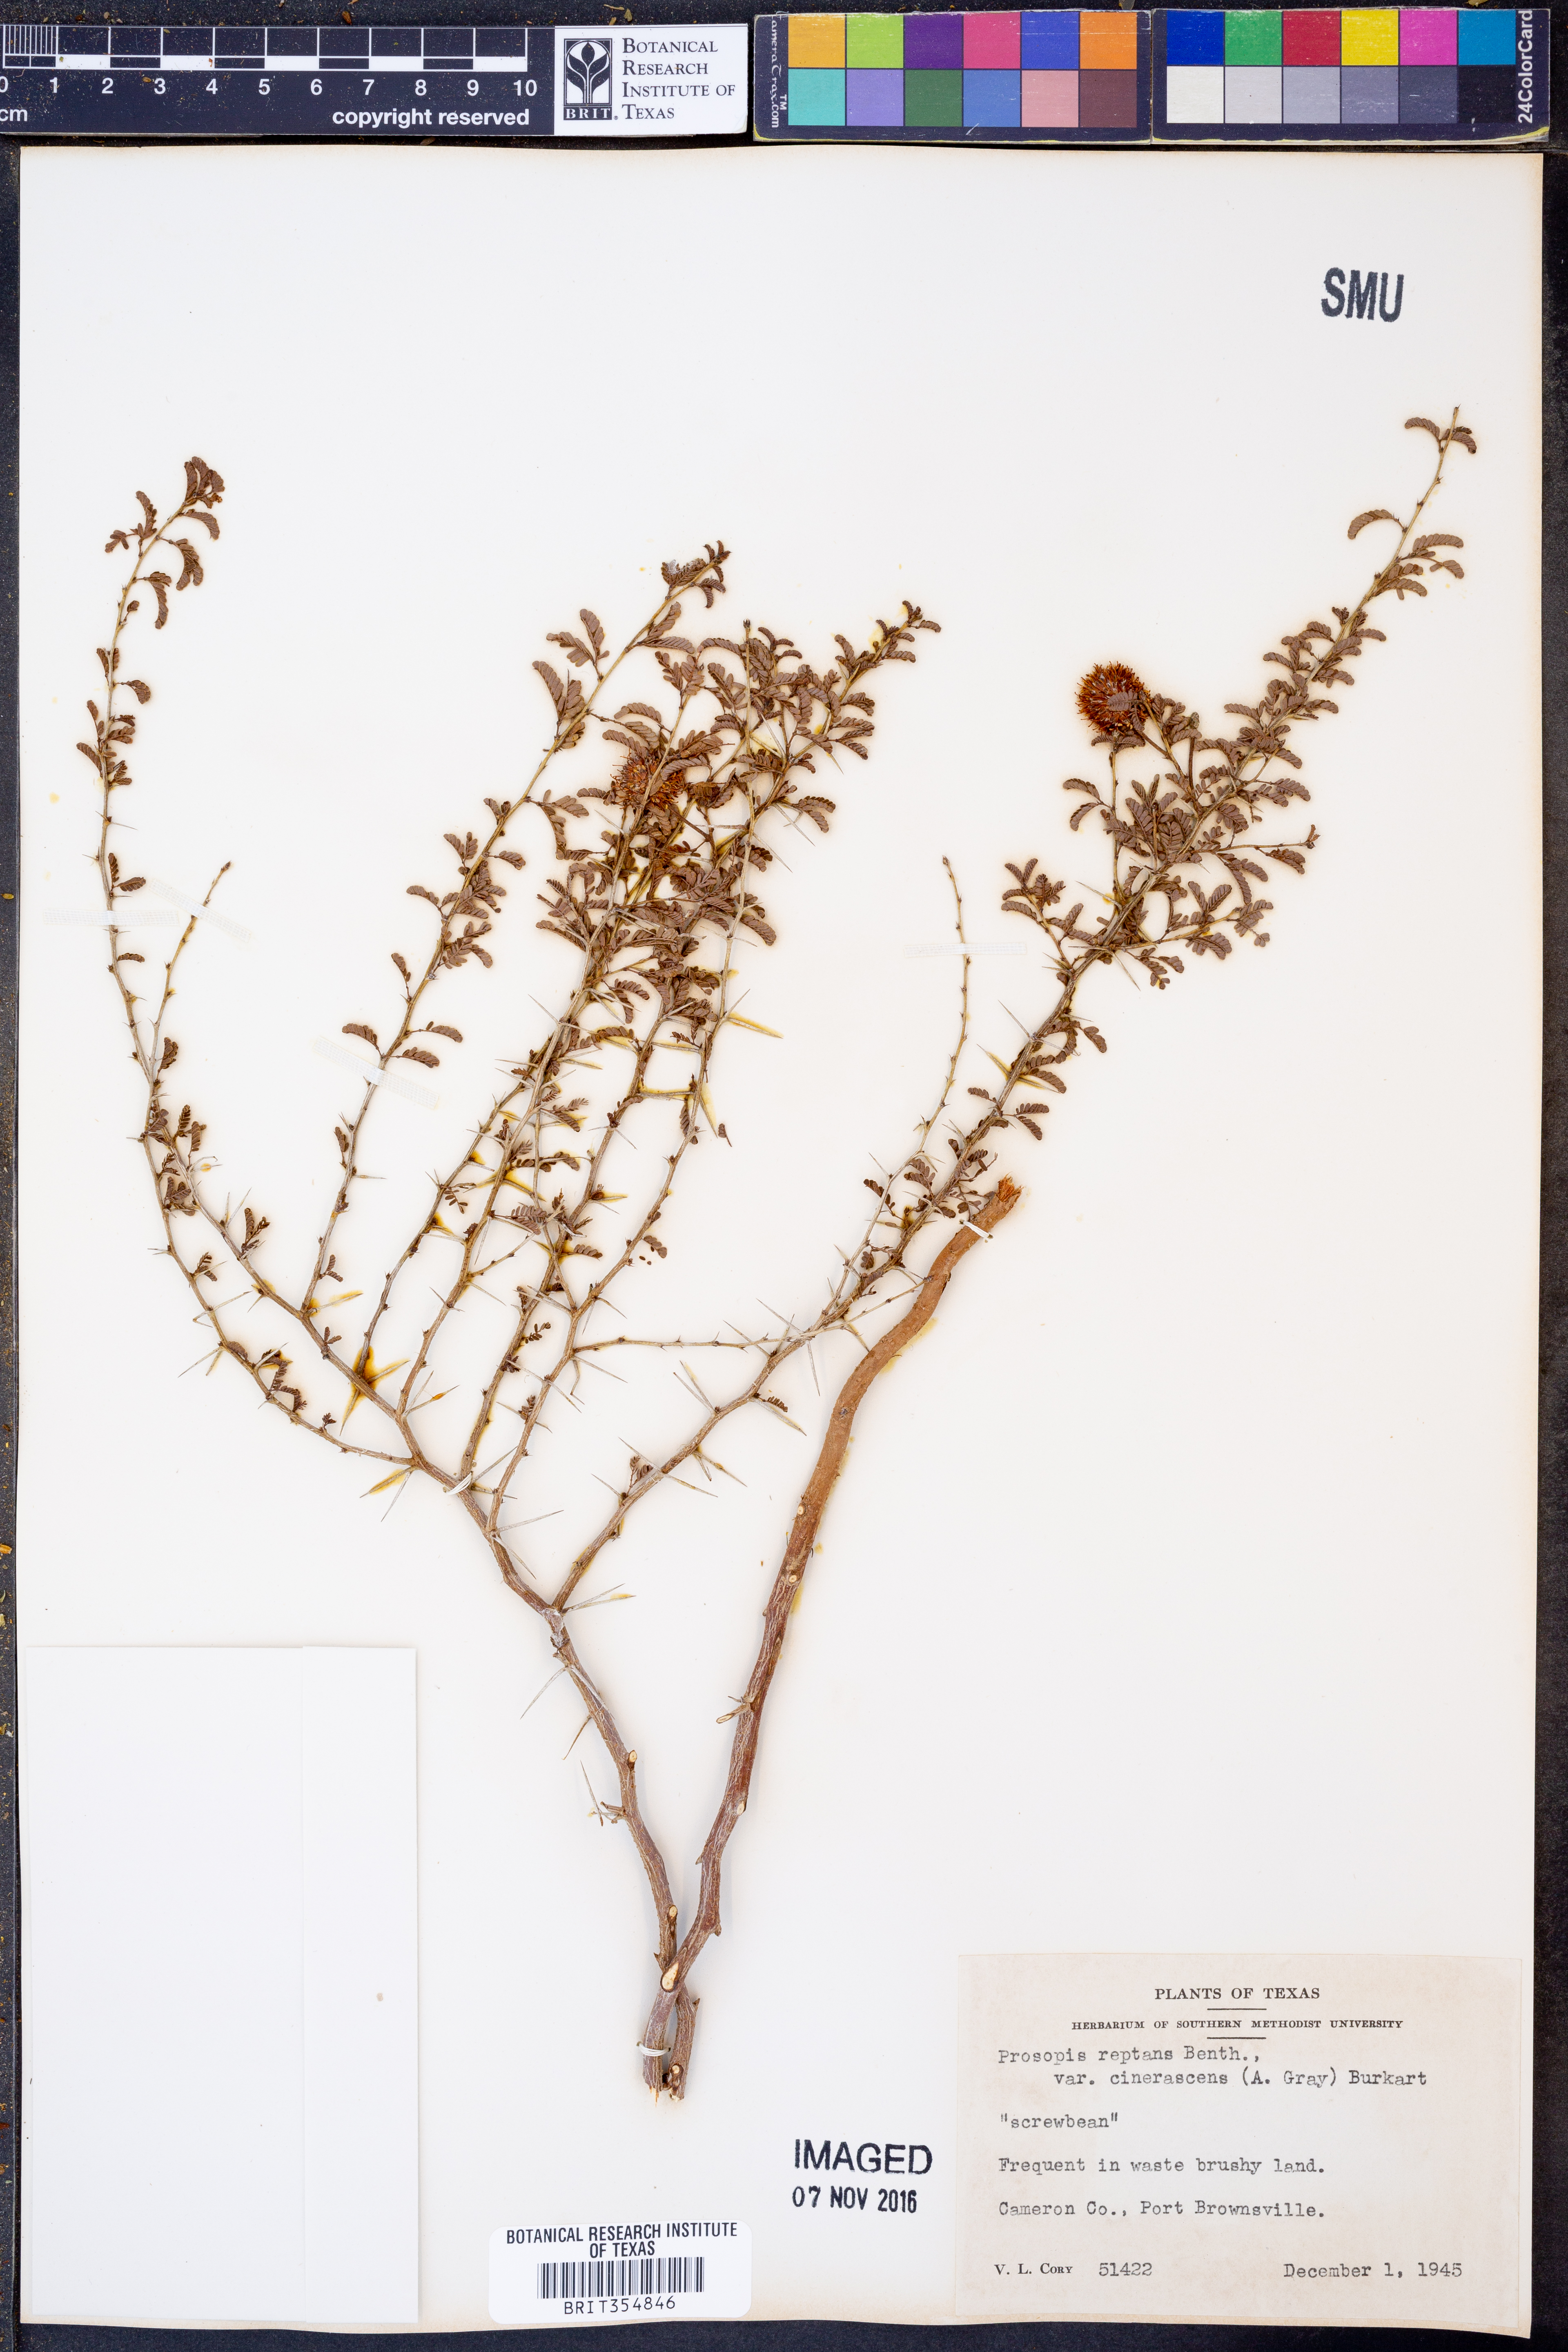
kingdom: Plantae
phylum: Tracheophyta
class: Magnoliopsida
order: Fabales
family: Fabaceae
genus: Prosopis
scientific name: Prosopis cinerascens
